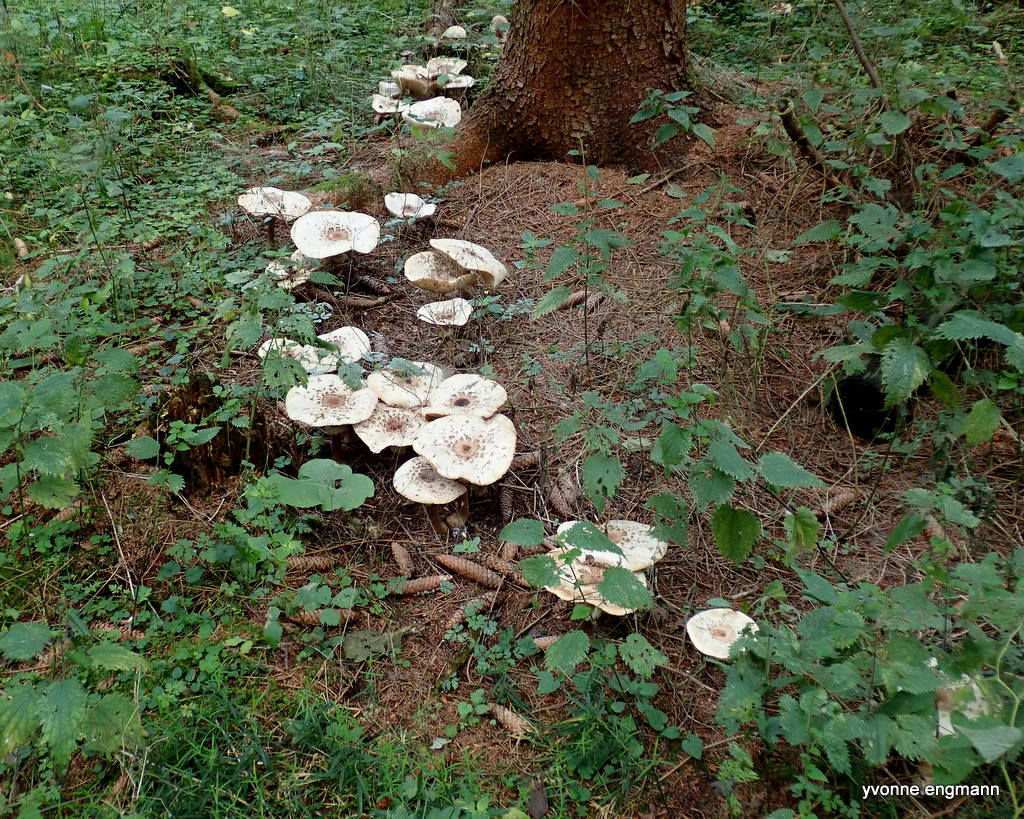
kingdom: Fungi
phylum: Basidiomycota
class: Agaricomycetes
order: Agaricales
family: Agaricaceae
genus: Chlorophyllum
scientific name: Chlorophyllum
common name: rabarberhat
